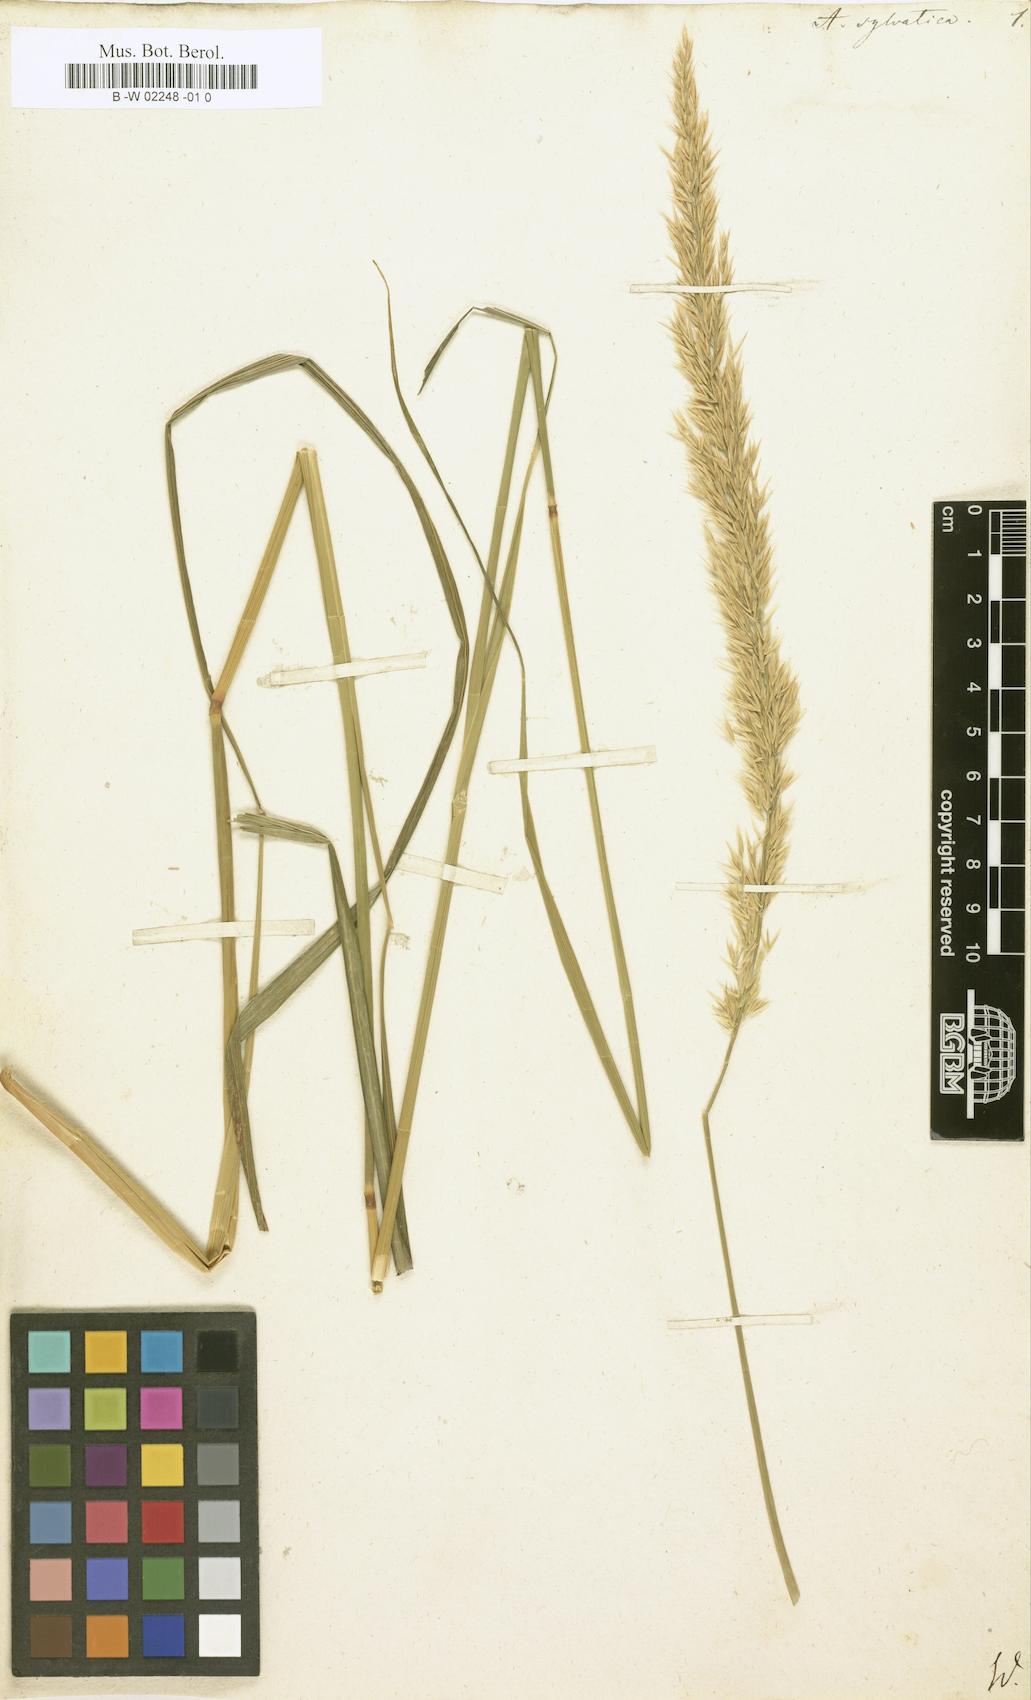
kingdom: Plantae
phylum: Tracheophyta
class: Liliopsida
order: Poales
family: Poaceae
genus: Calamagrostis
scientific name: Calamagrostis arundinacea
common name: Metskastik
